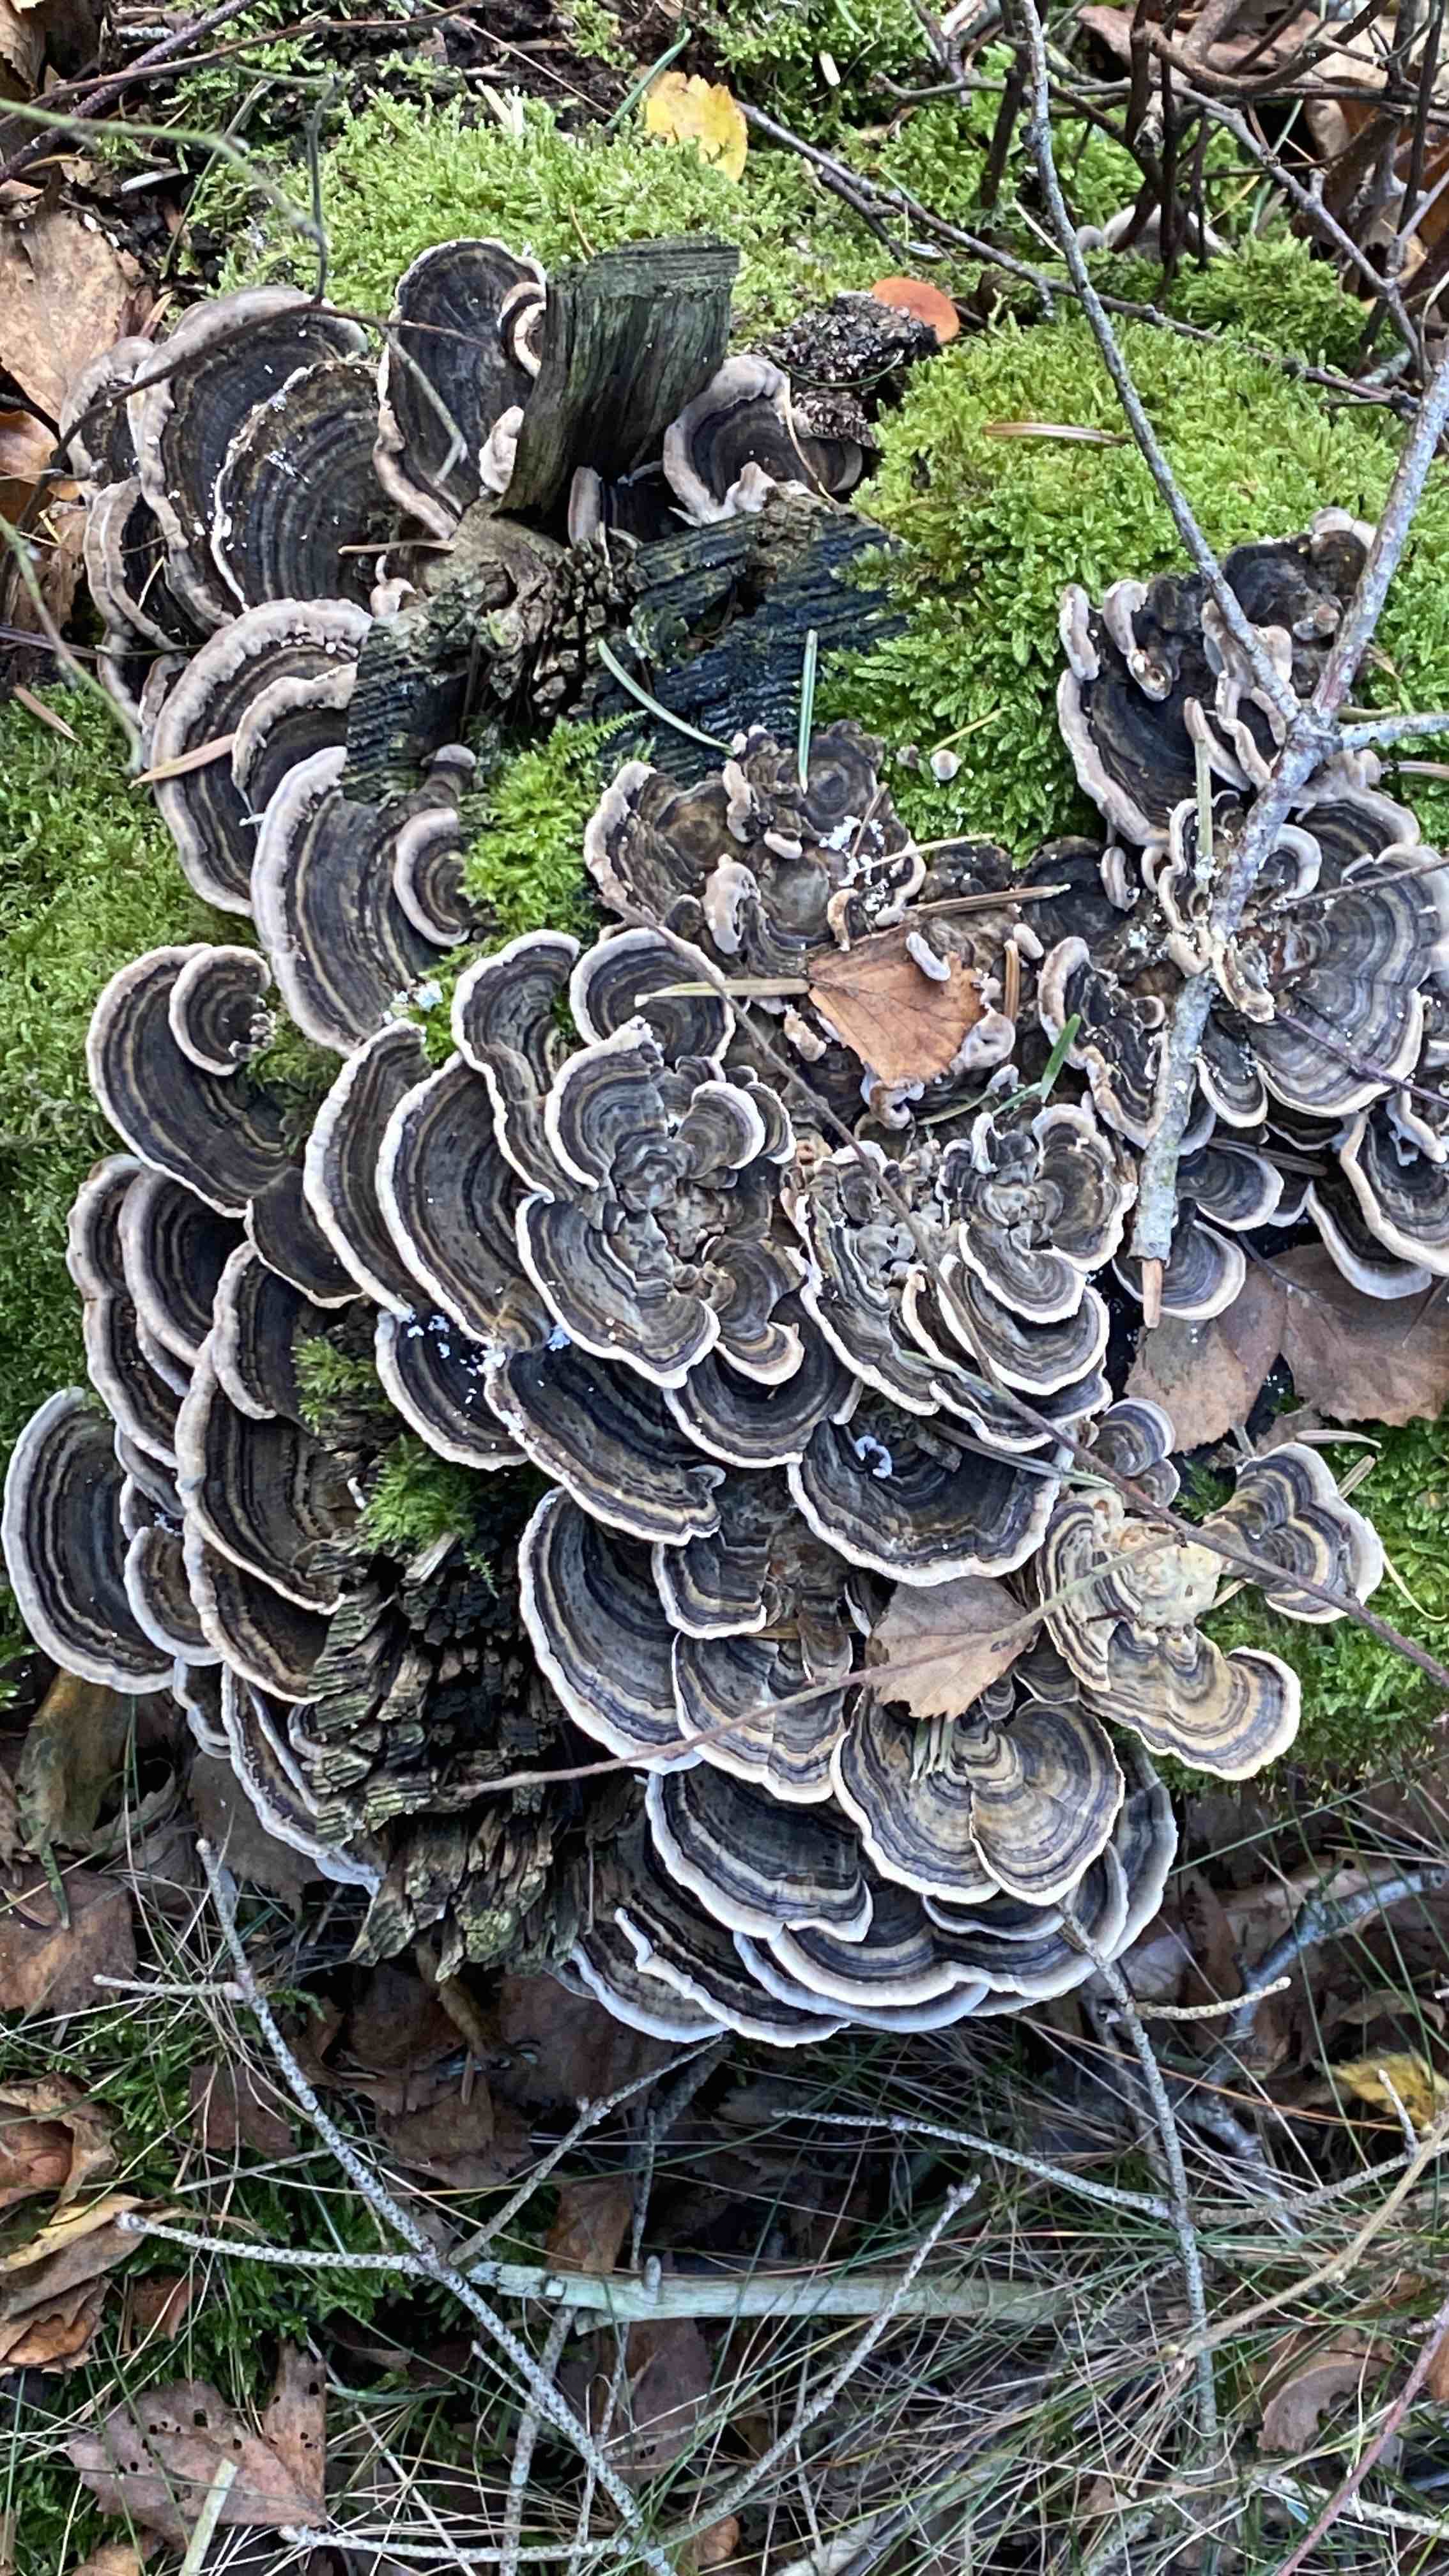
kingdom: Fungi
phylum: Basidiomycota
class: Agaricomycetes
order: Polyporales
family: Polyporaceae
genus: Trametes
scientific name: Trametes versicolor
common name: broget læderporesvamp
